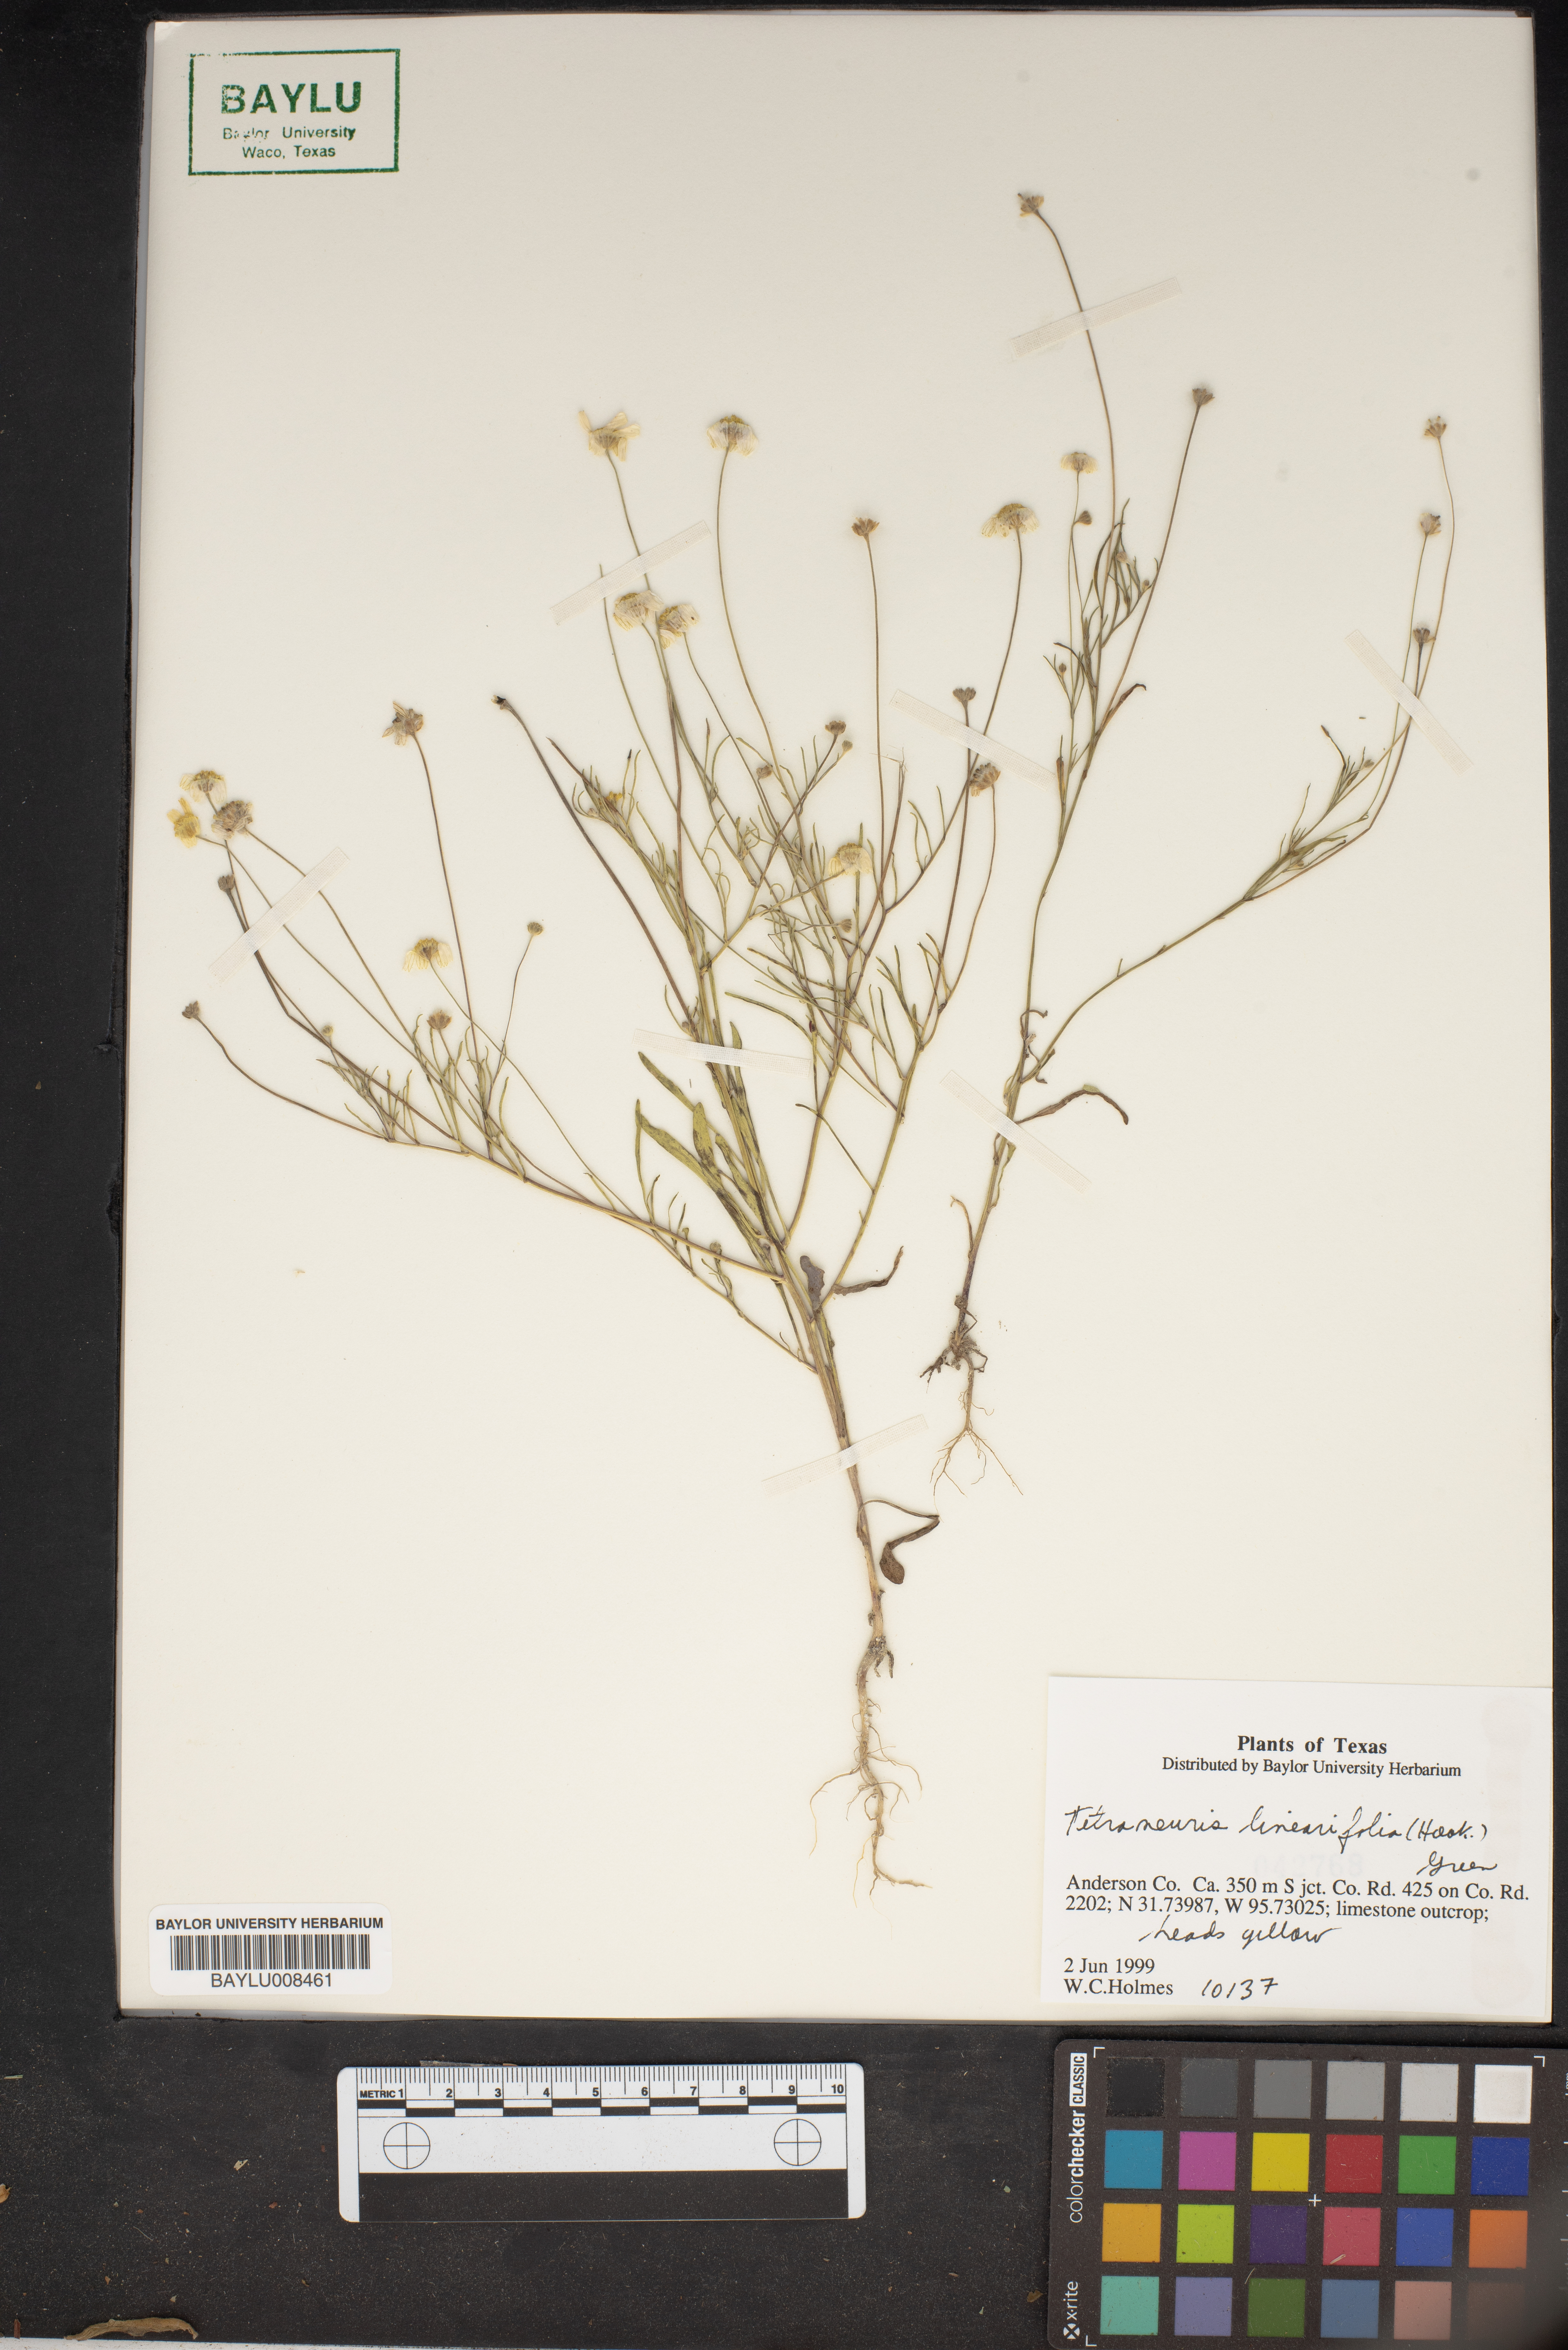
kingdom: Plantae
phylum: Tracheophyta
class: Magnoliopsida
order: Asterales
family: Asteraceae
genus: Tetraneuris
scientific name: Tetraneuris linearifolia
